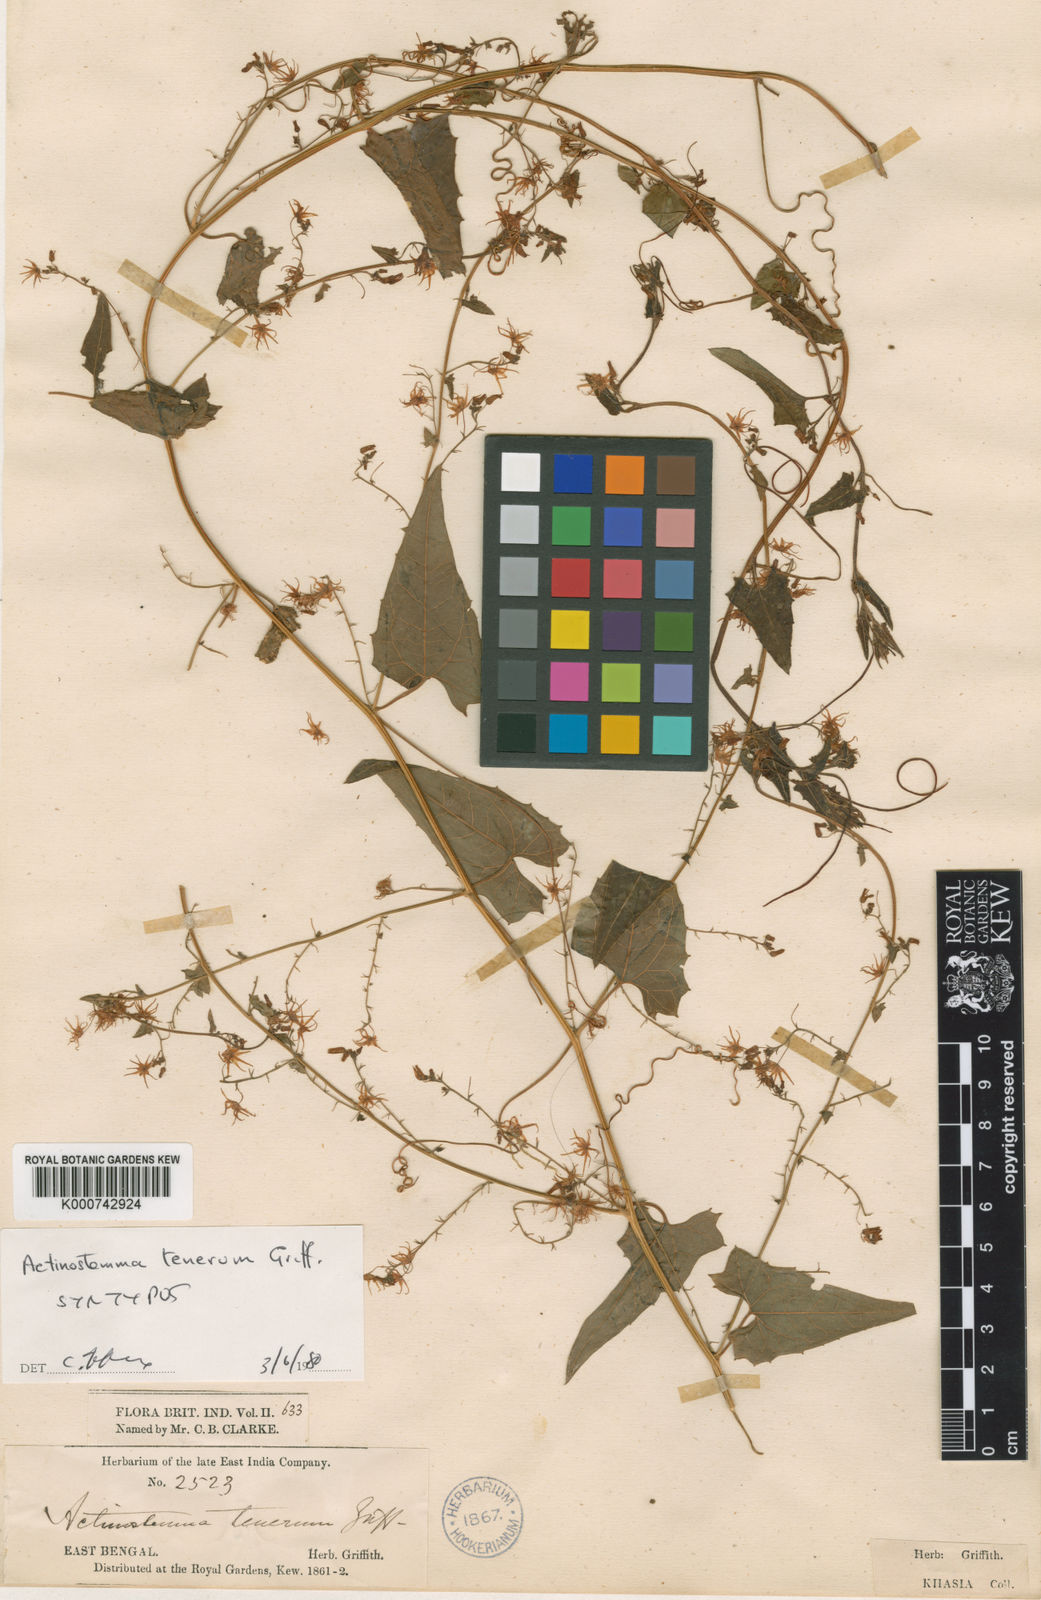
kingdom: Plantae
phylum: Tracheophyta
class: Magnoliopsida
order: Cucurbitales
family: Cucurbitaceae
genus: Actinostemma
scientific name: Actinostemma tenerum
